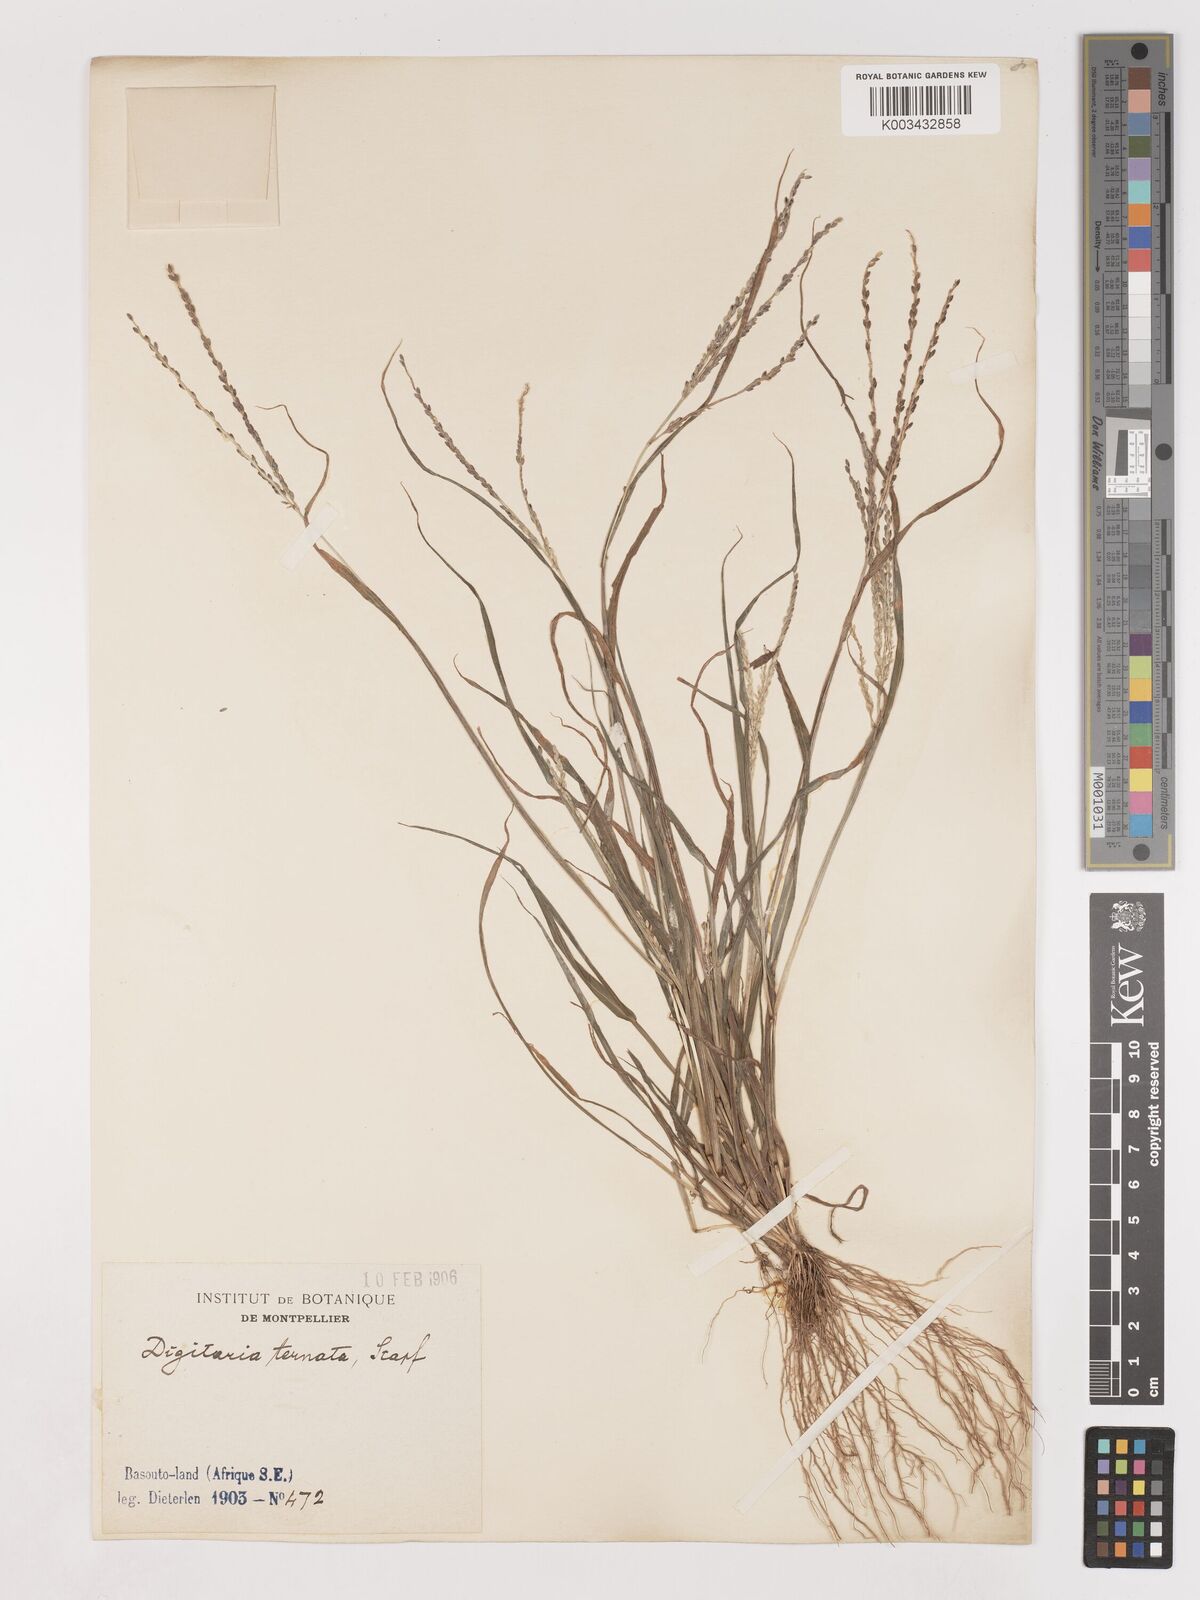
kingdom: Plantae
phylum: Tracheophyta
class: Liliopsida
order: Poales
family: Poaceae
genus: Digitaria
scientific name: Digitaria ternata
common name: Blackseed crabgrass
